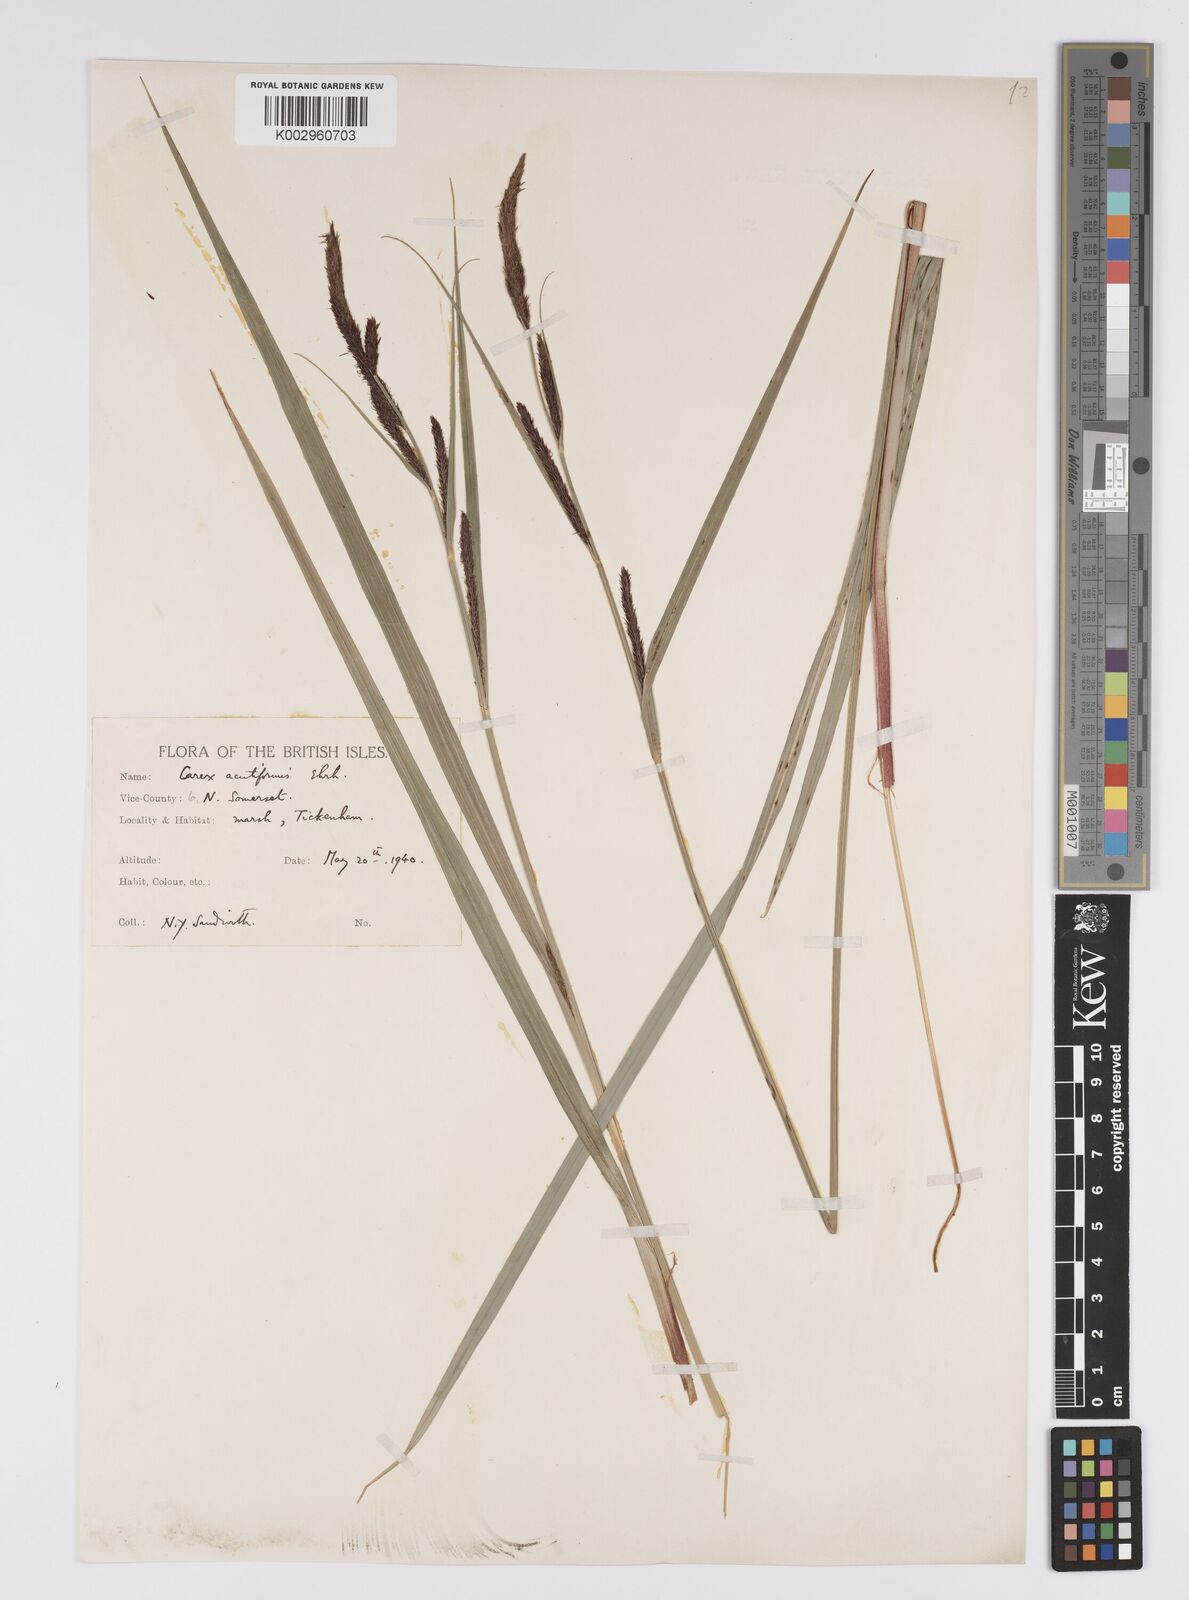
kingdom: Plantae
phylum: Tracheophyta
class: Liliopsida
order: Poales
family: Cyperaceae
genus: Carex
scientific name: Carex acutiformis
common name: Lesser pond-sedge
